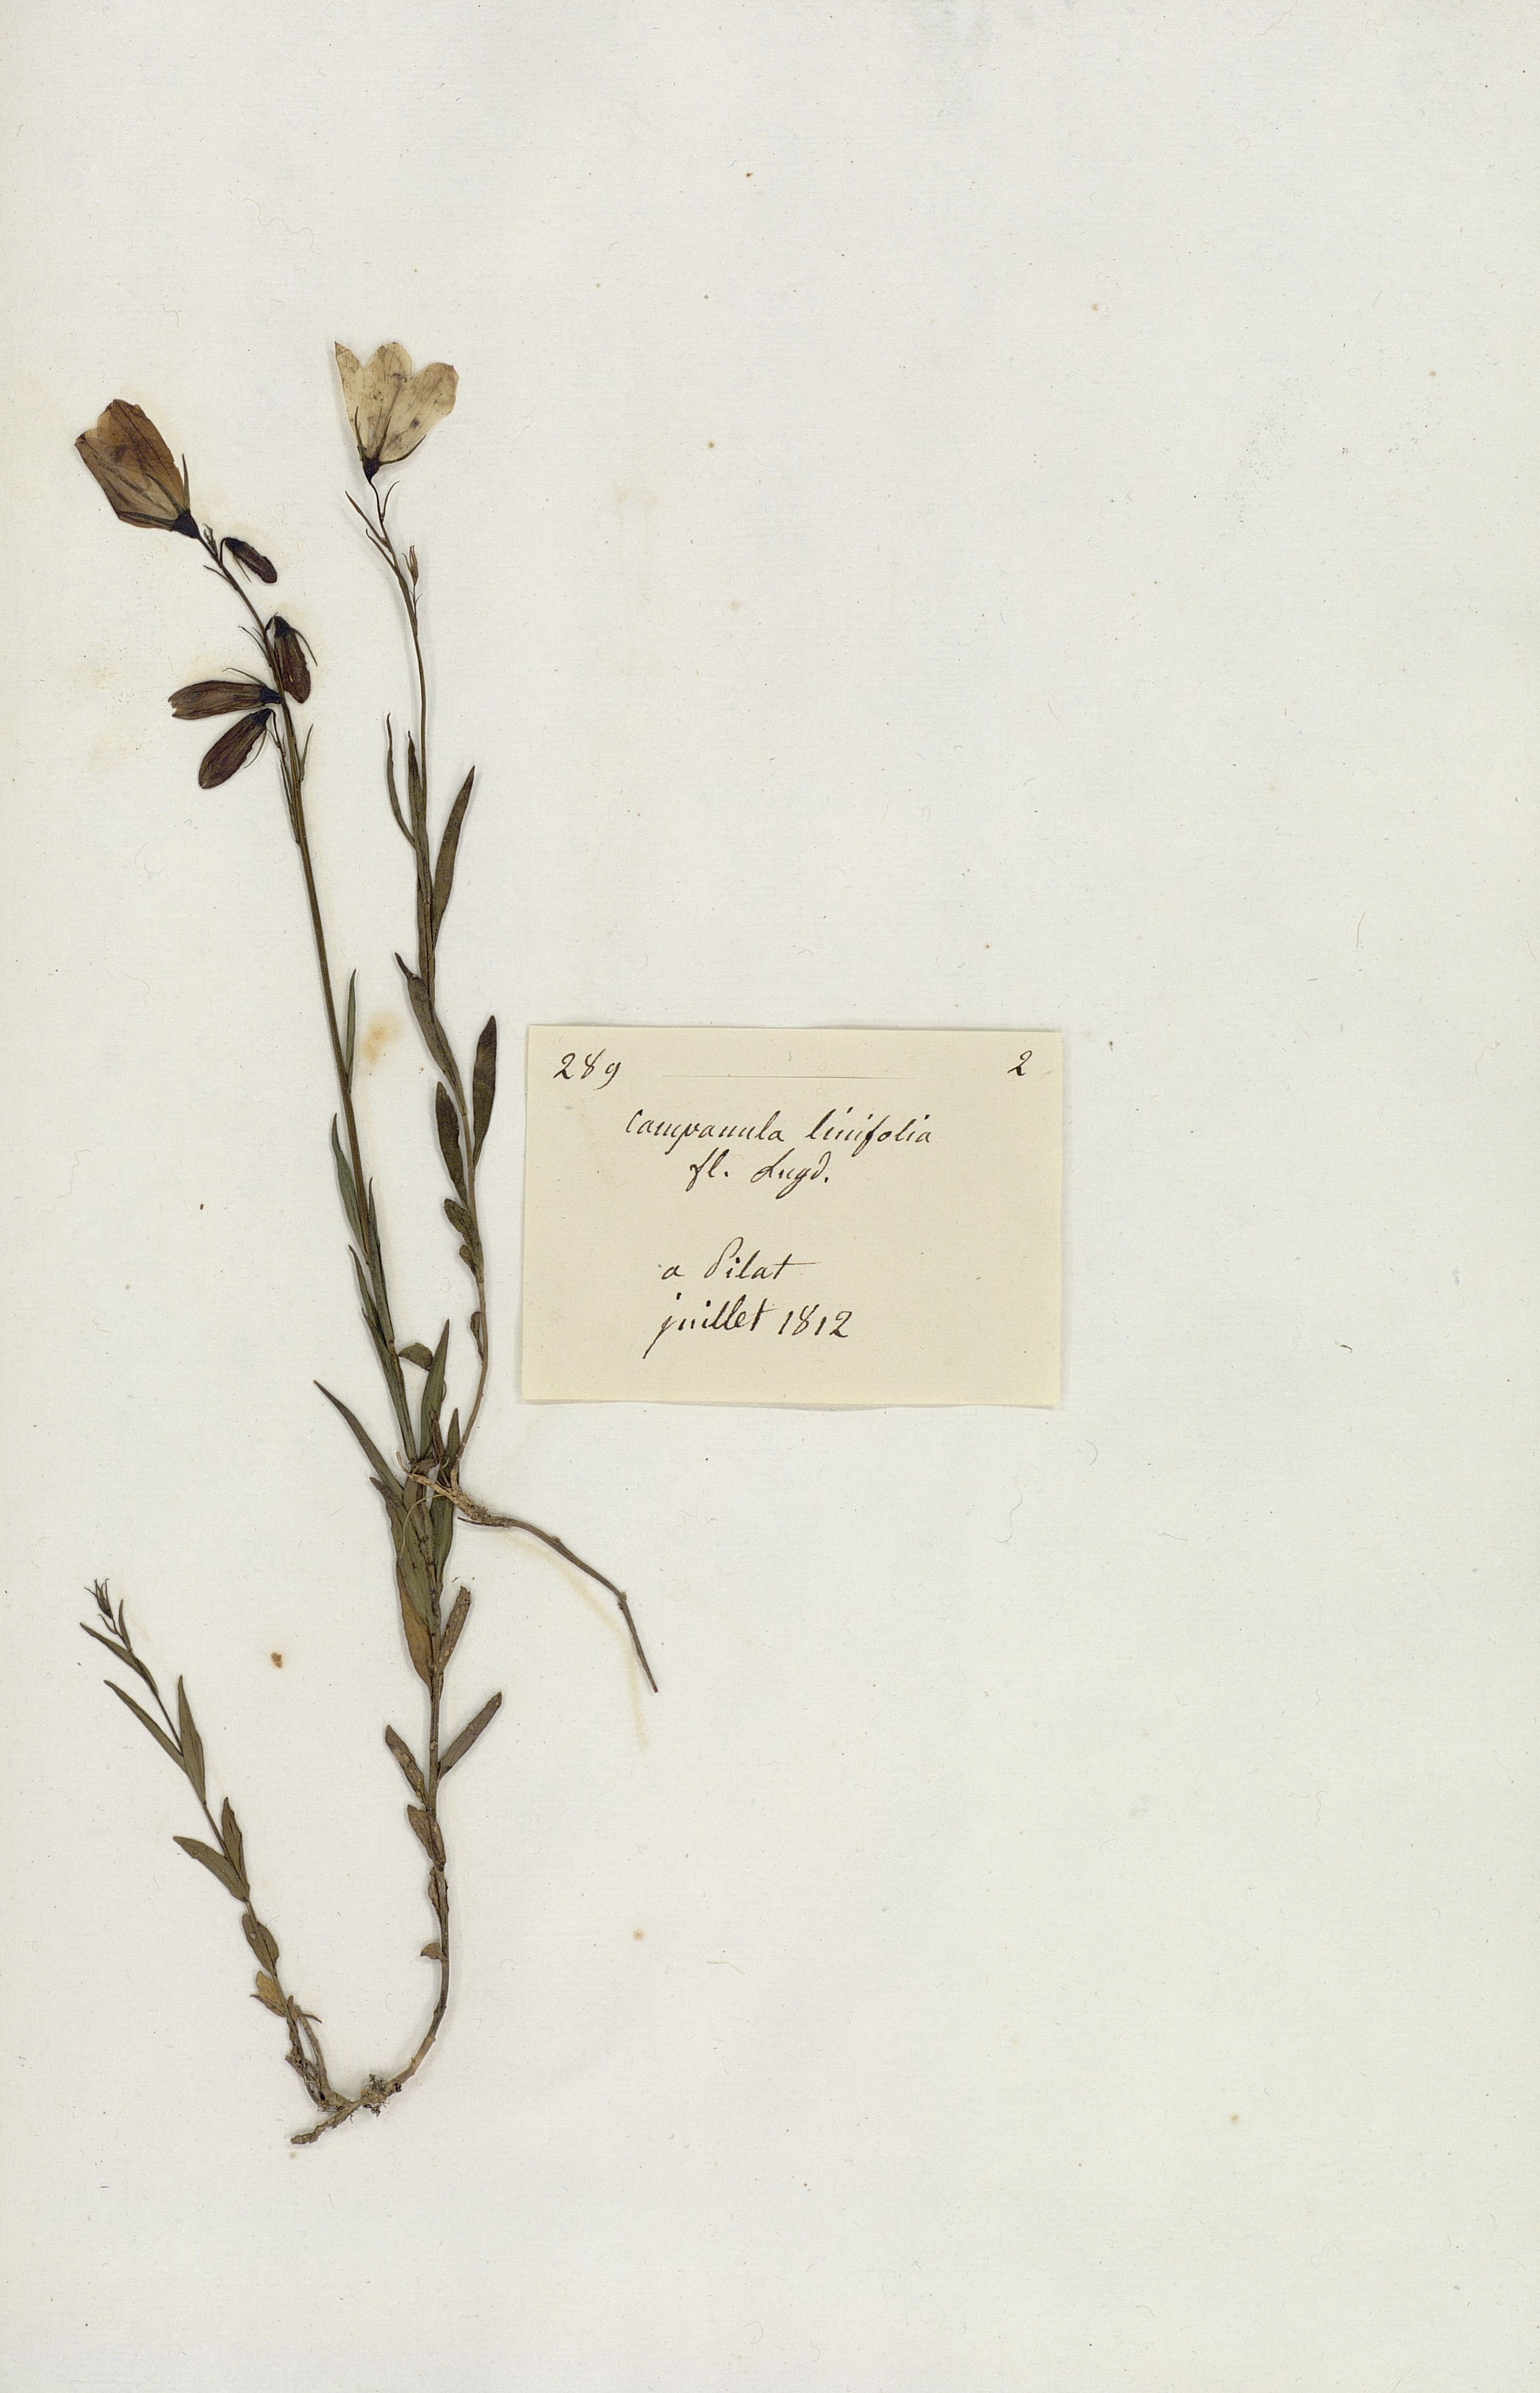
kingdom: Plantae
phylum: Tracheophyta
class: Magnoliopsida
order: Asterales
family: Campanulaceae
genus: Campanula
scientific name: Campanula
